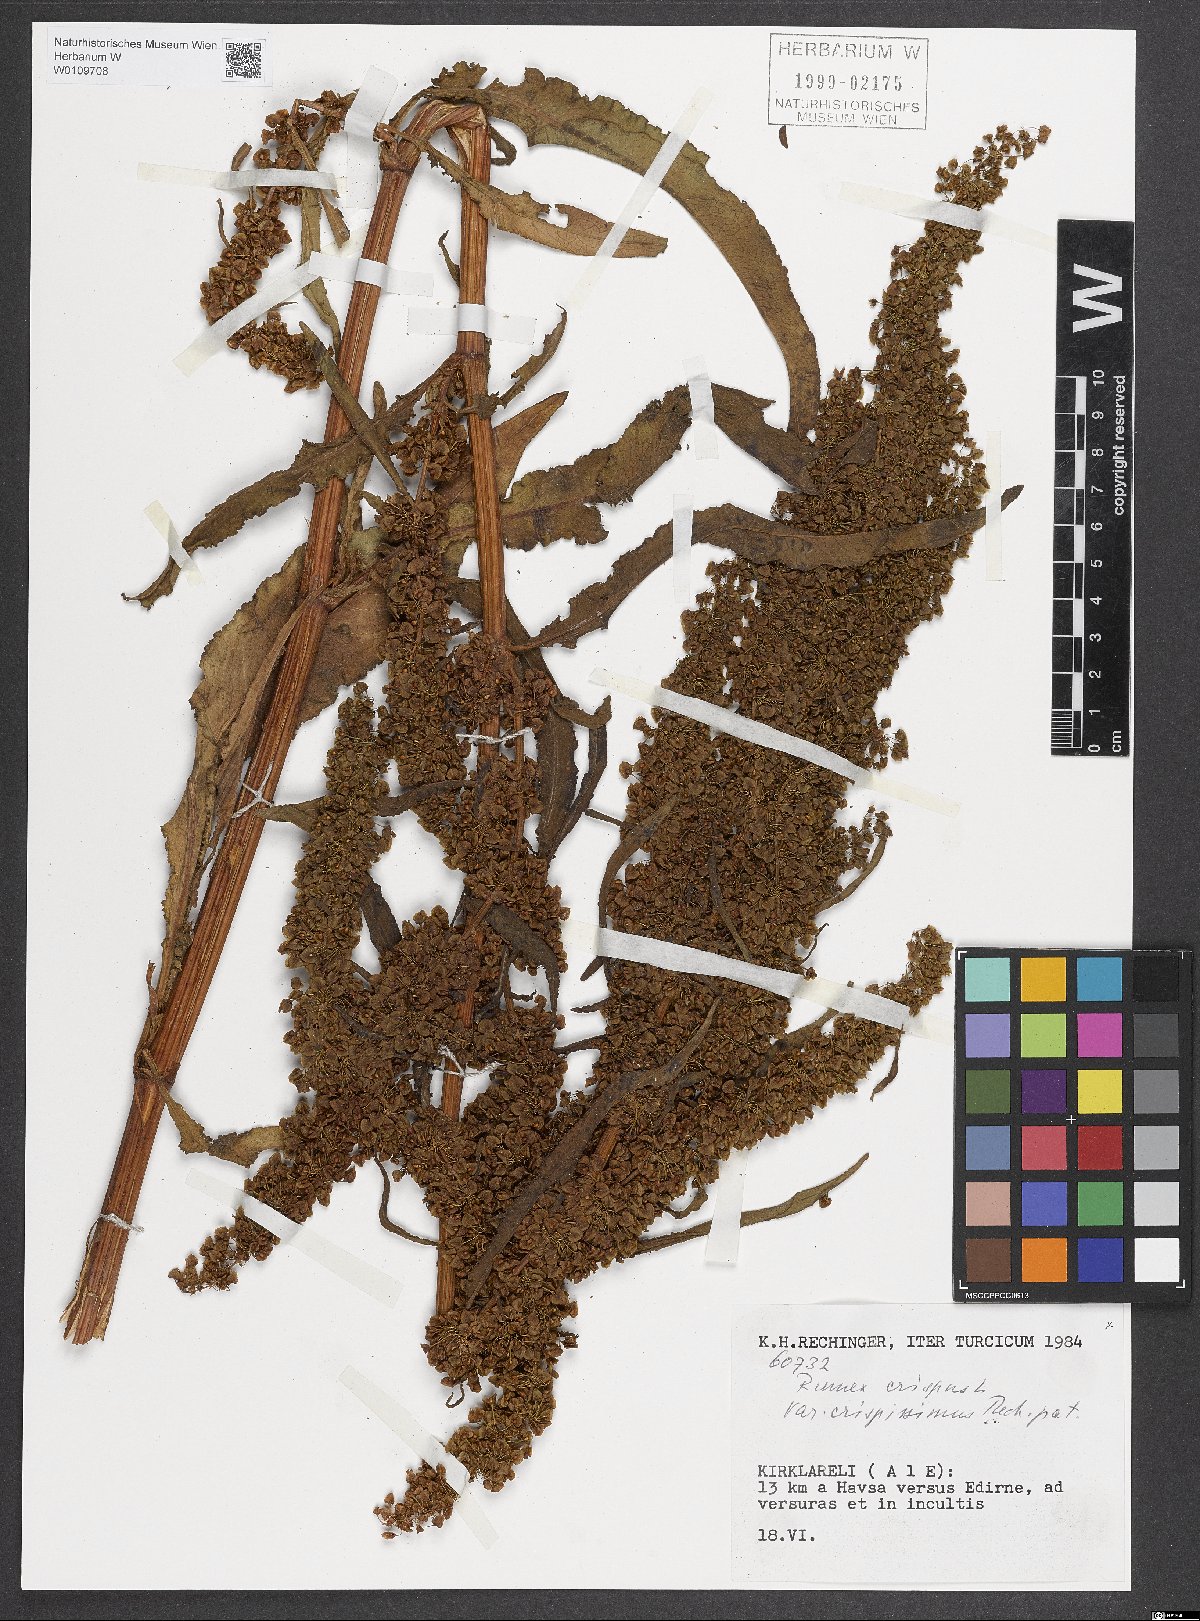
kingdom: Plantae
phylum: Tracheophyta
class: Magnoliopsida
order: Caryophyllales
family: Polygonaceae
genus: Rumex
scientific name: Rumex crispus
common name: Curled dock
